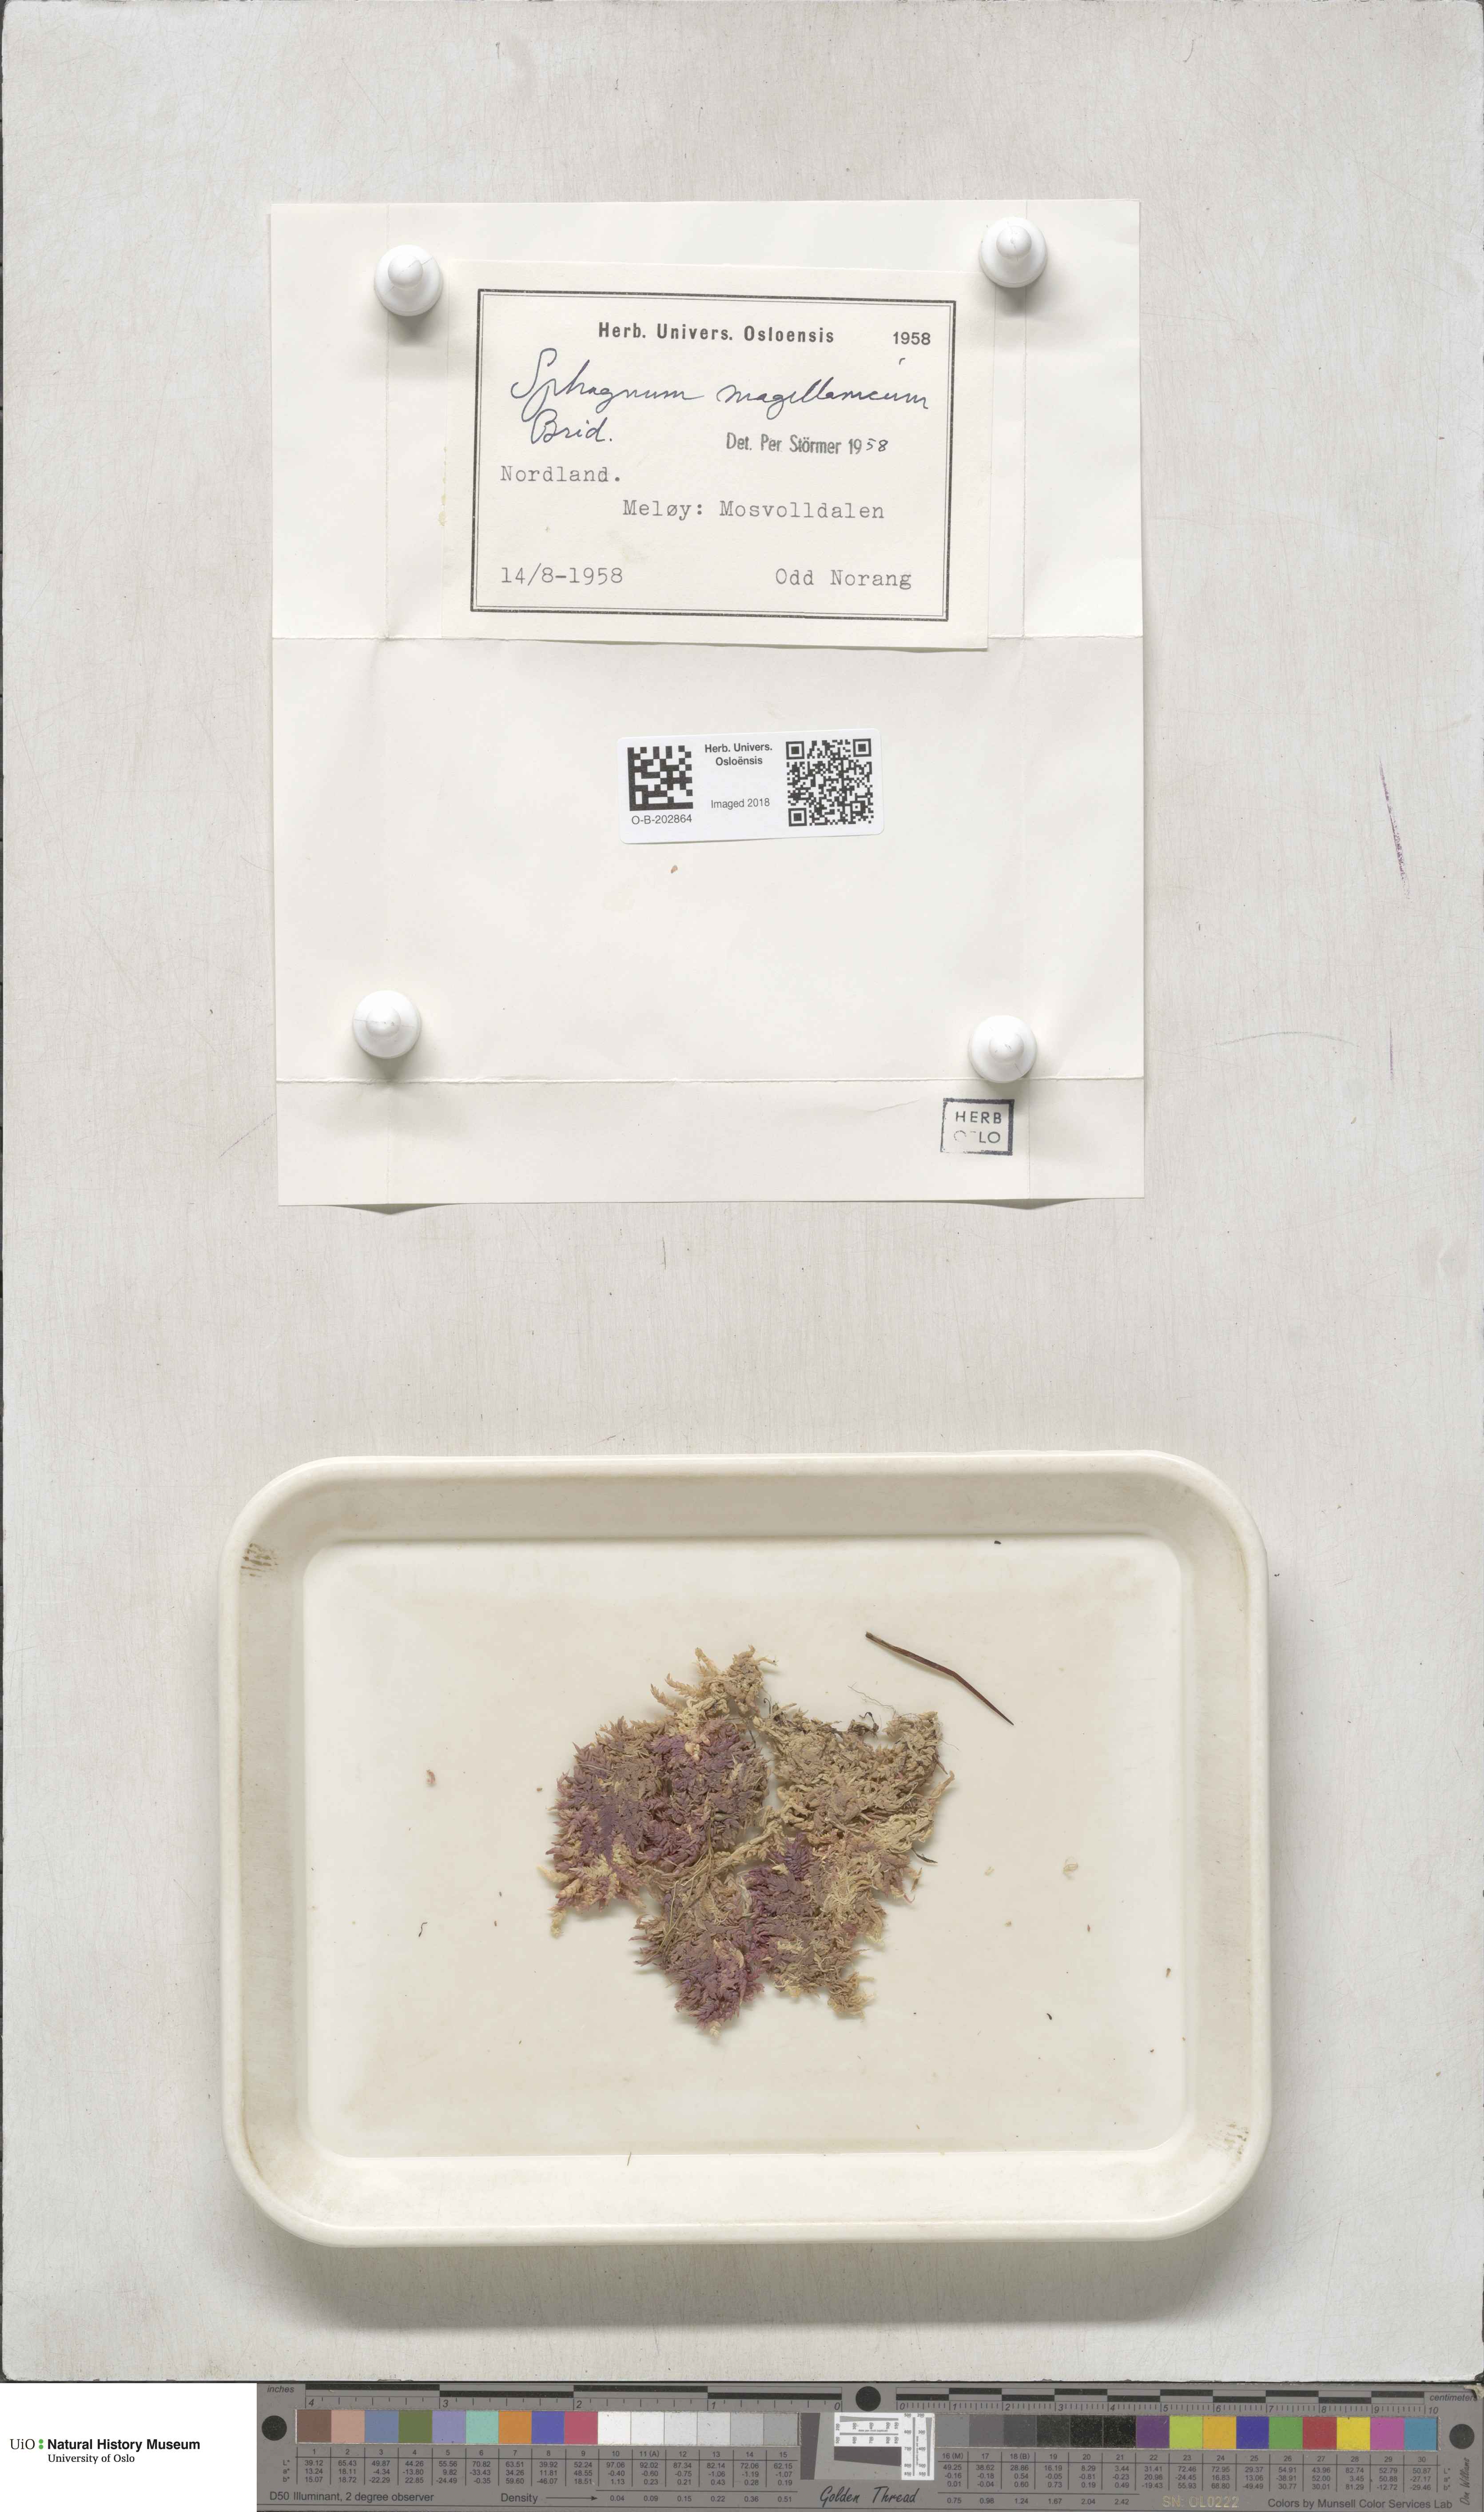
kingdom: Plantae
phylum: Bryophyta
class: Sphagnopsida
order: Sphagnales
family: Sphagnaceae
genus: Sphagnum
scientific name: Sphagnum magellanicum
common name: Magellan's peat moss
